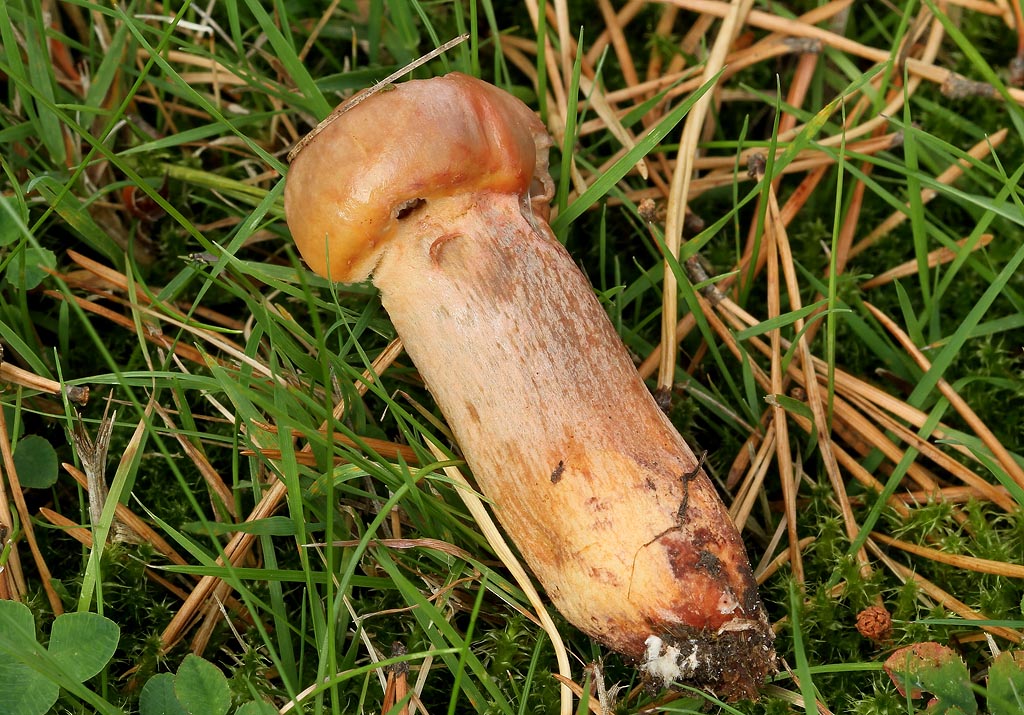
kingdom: Fungi
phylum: Basidiomycota
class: Agaricomycetes
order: Boletales
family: Gomphidiaceae
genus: Chroogomphus
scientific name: Chroogomphus rutilus
